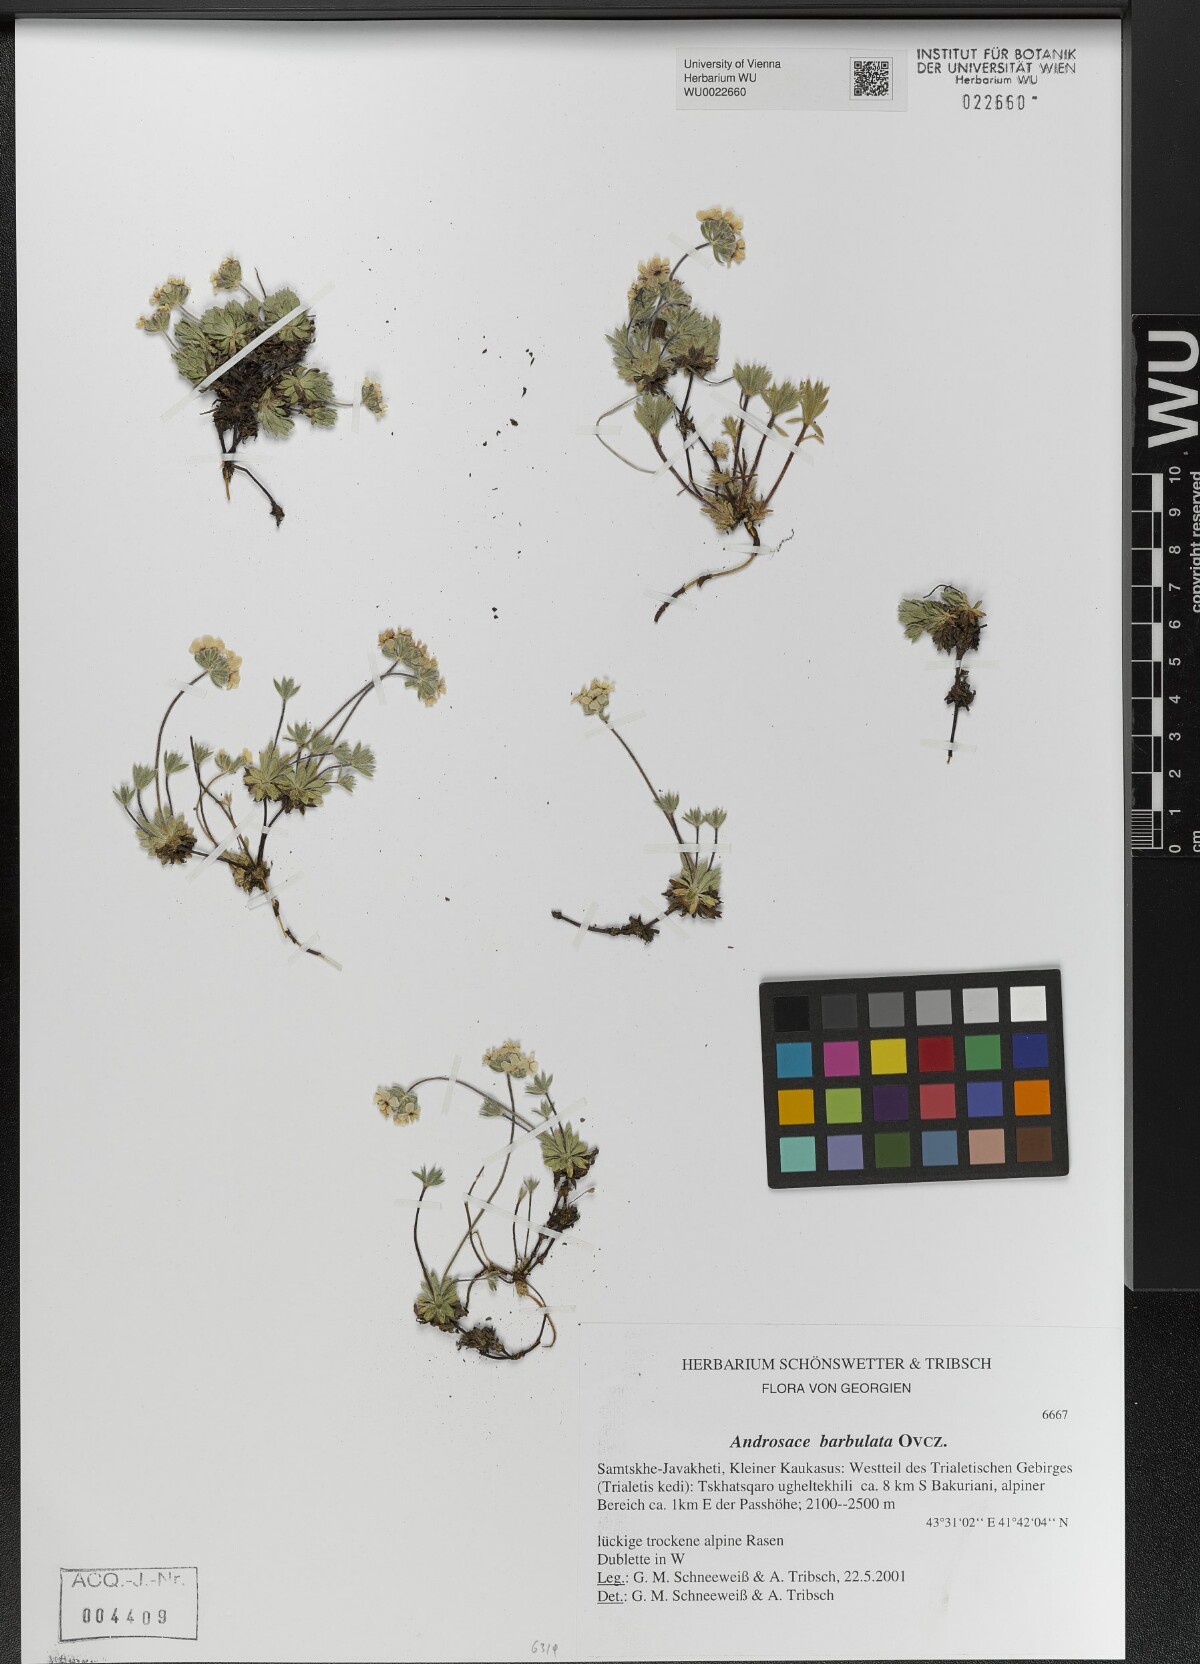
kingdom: Plantae
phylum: Tracheophyta
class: Magnoliopsida
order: Ericales
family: Primulaceae
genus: Androsace
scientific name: Androsace villosa
